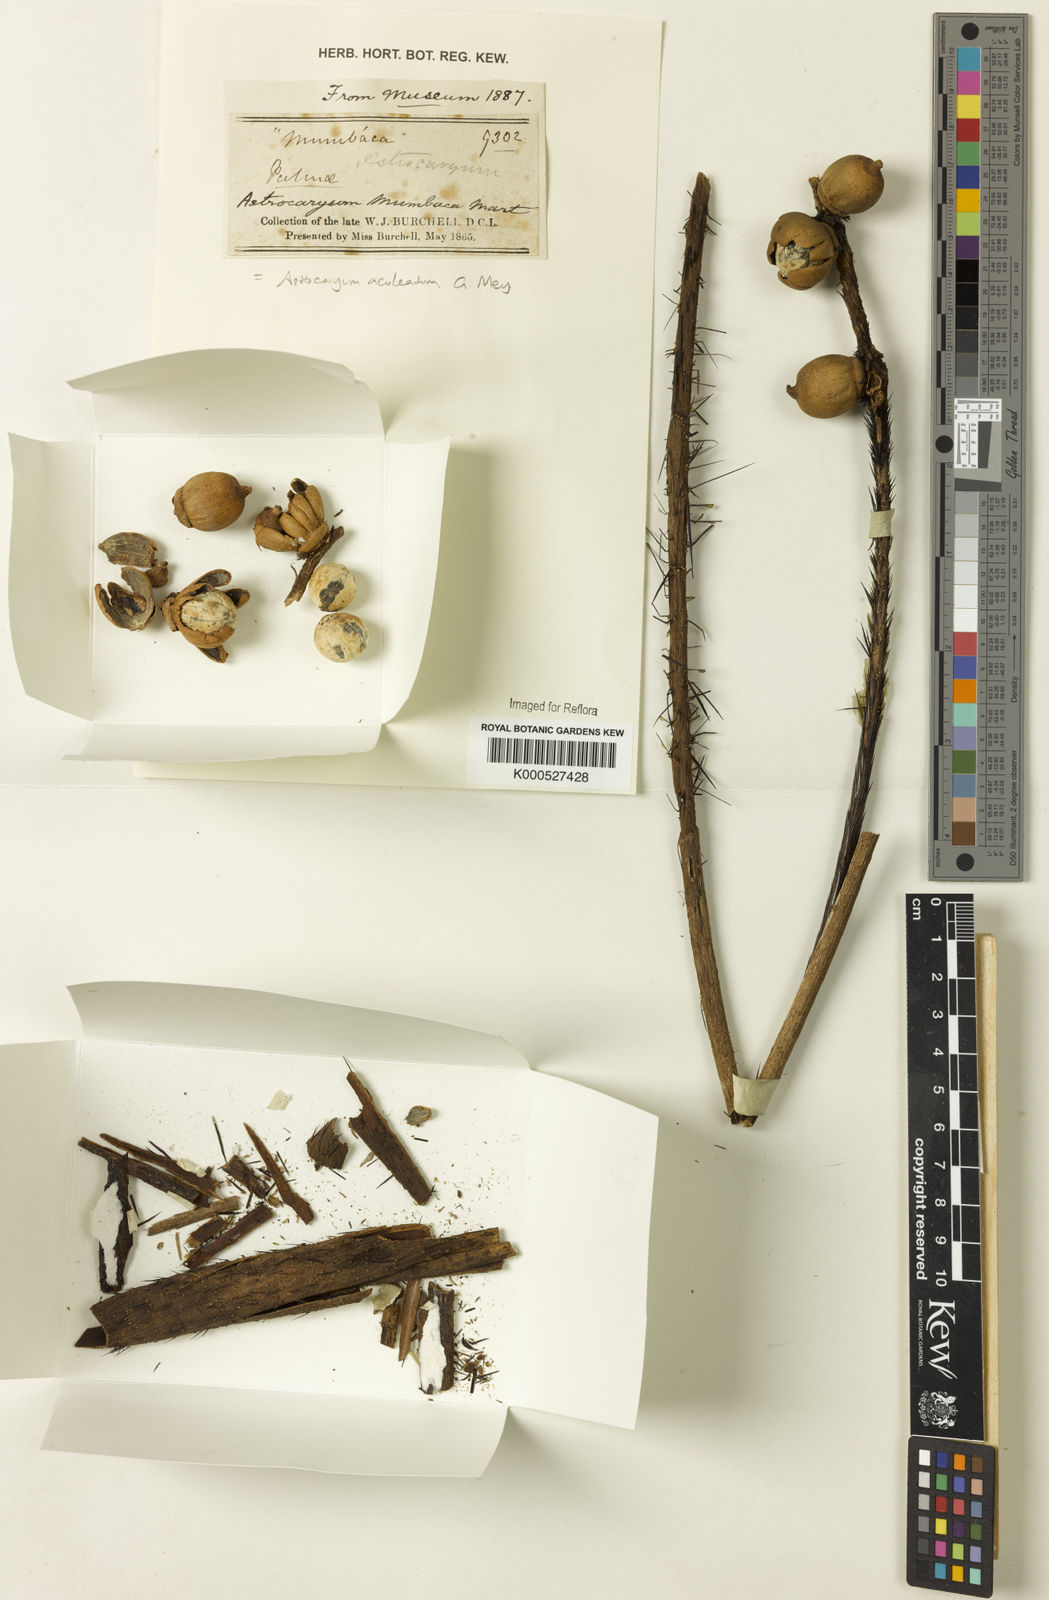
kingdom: Plantae
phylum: Tracheophyta
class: Liliopsida
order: Arecales
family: Arecaceae
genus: Astrocaryum
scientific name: Astrocaryum aculeatum
